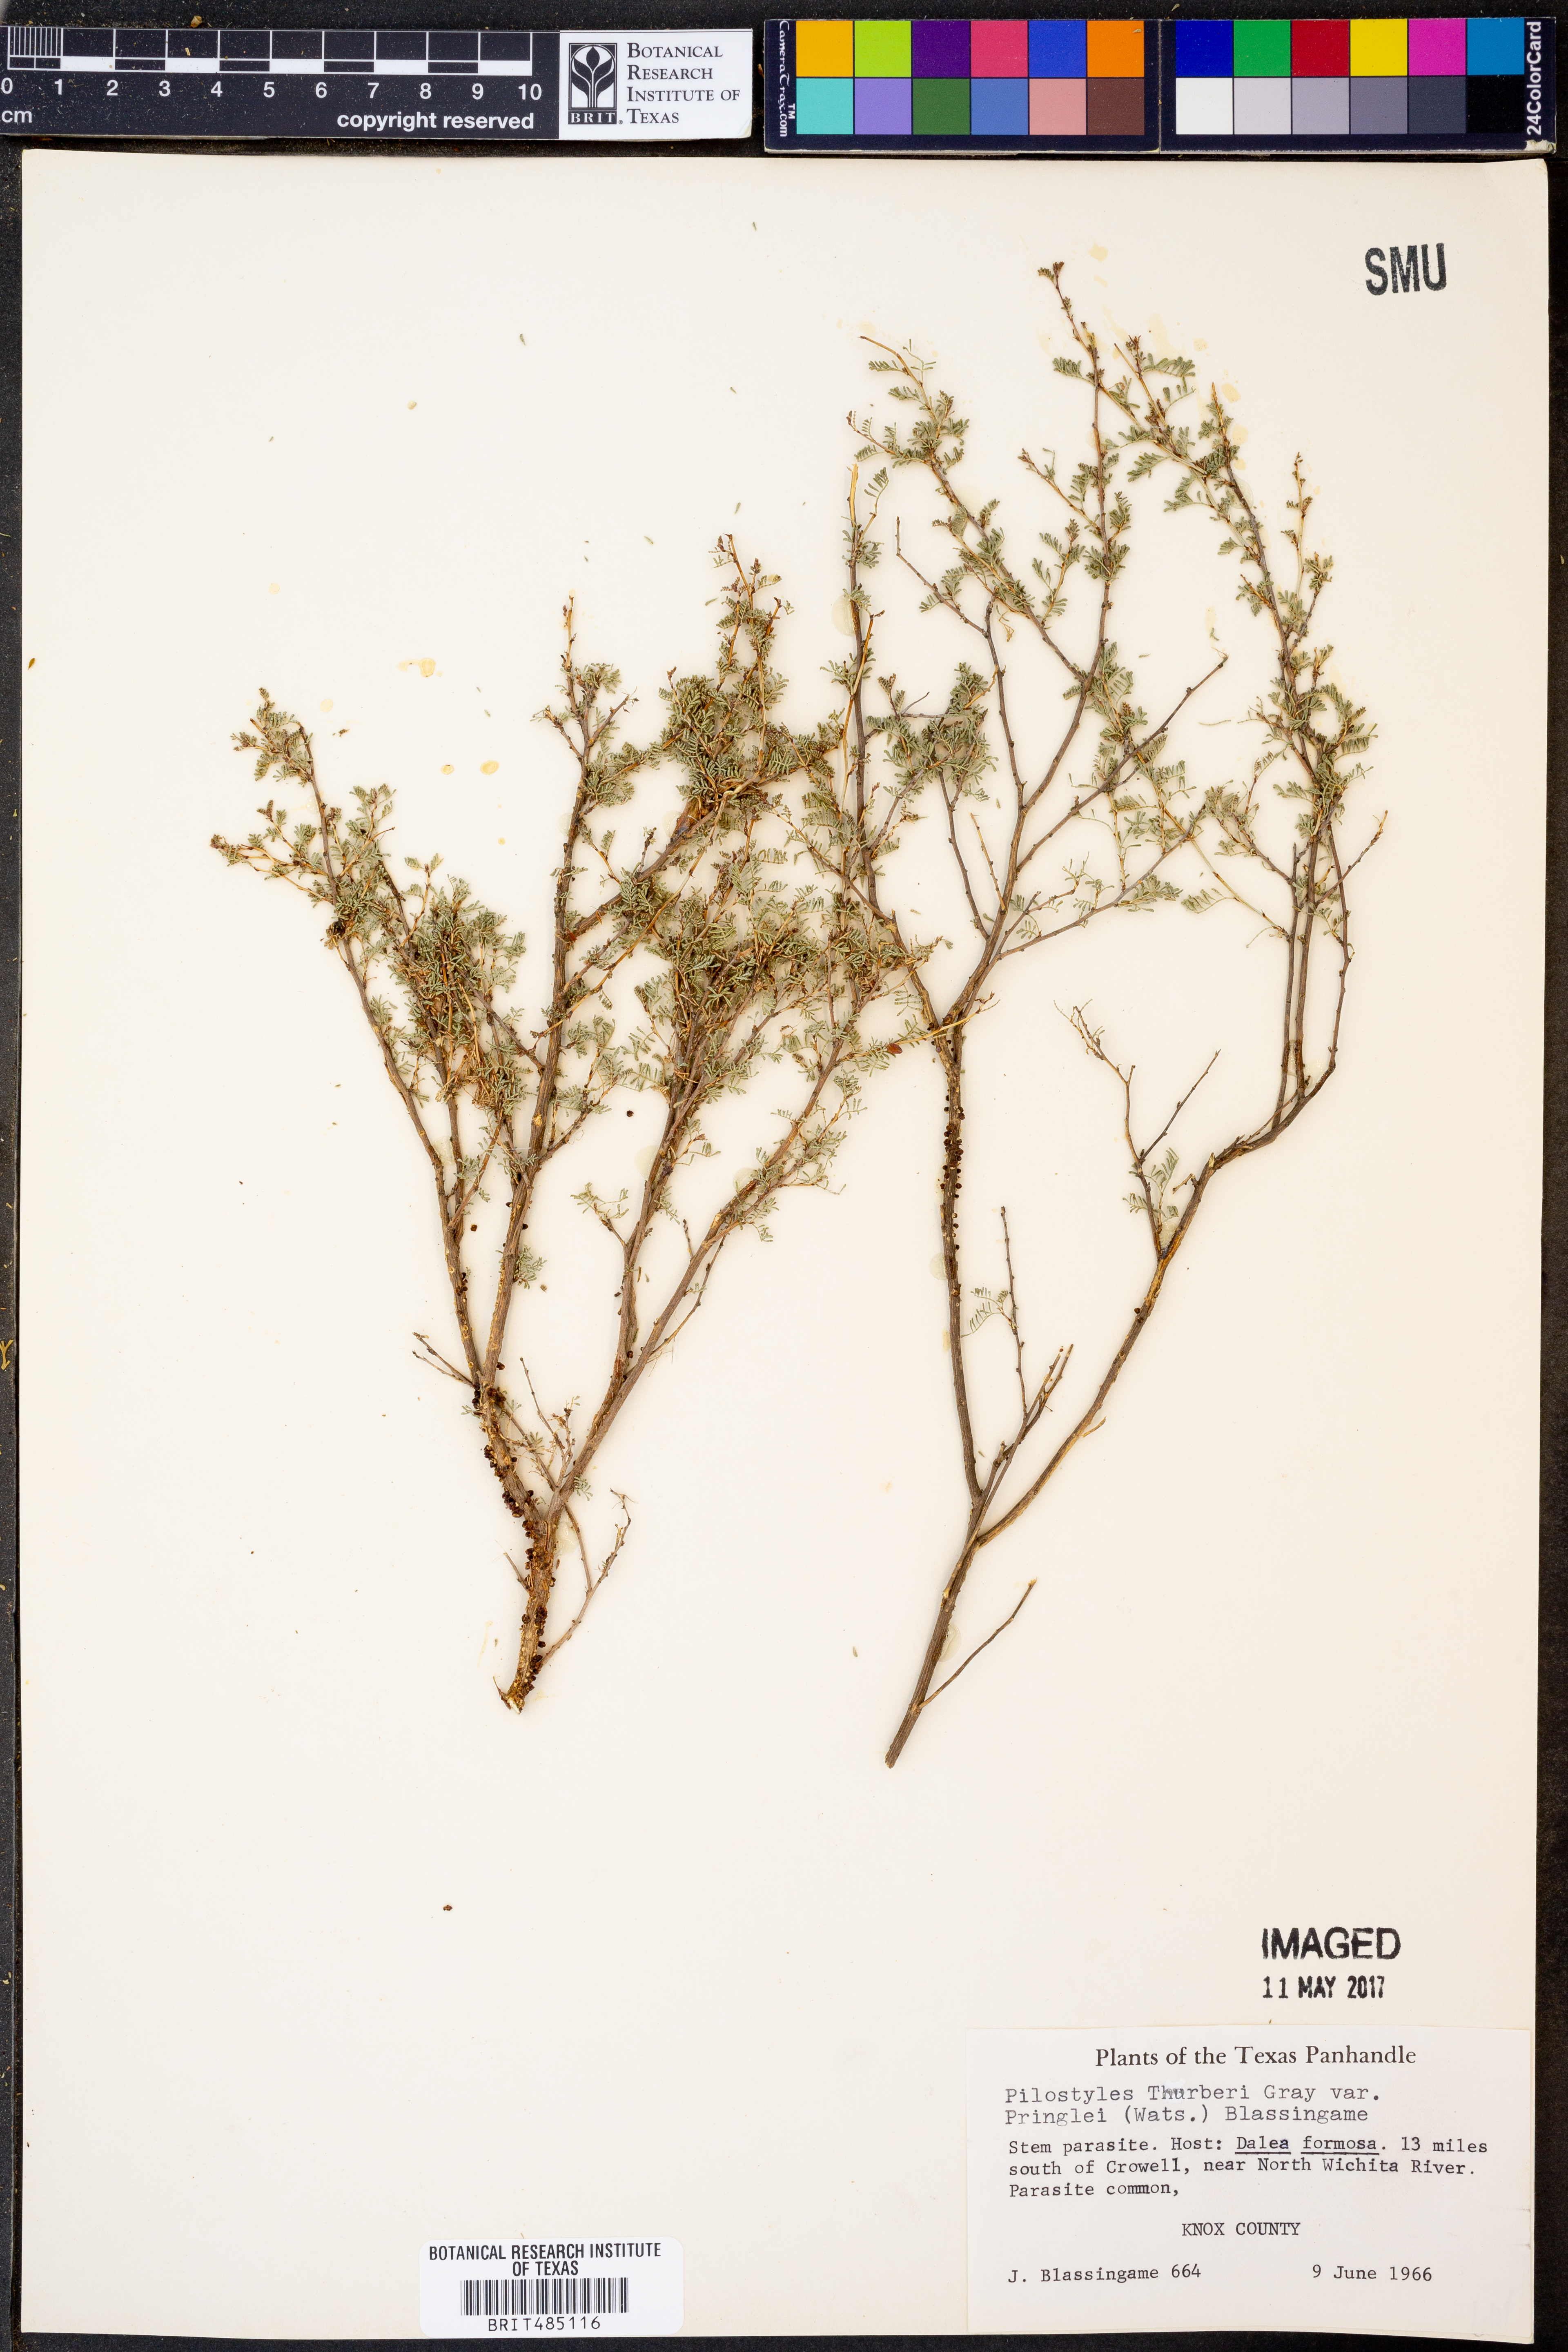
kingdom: Plantae
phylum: Tracheophyta
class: Magnoliopsida
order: Cucurbitales
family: Apodanthaceae
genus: Pilostyles
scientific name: Pilostyles thurberi
